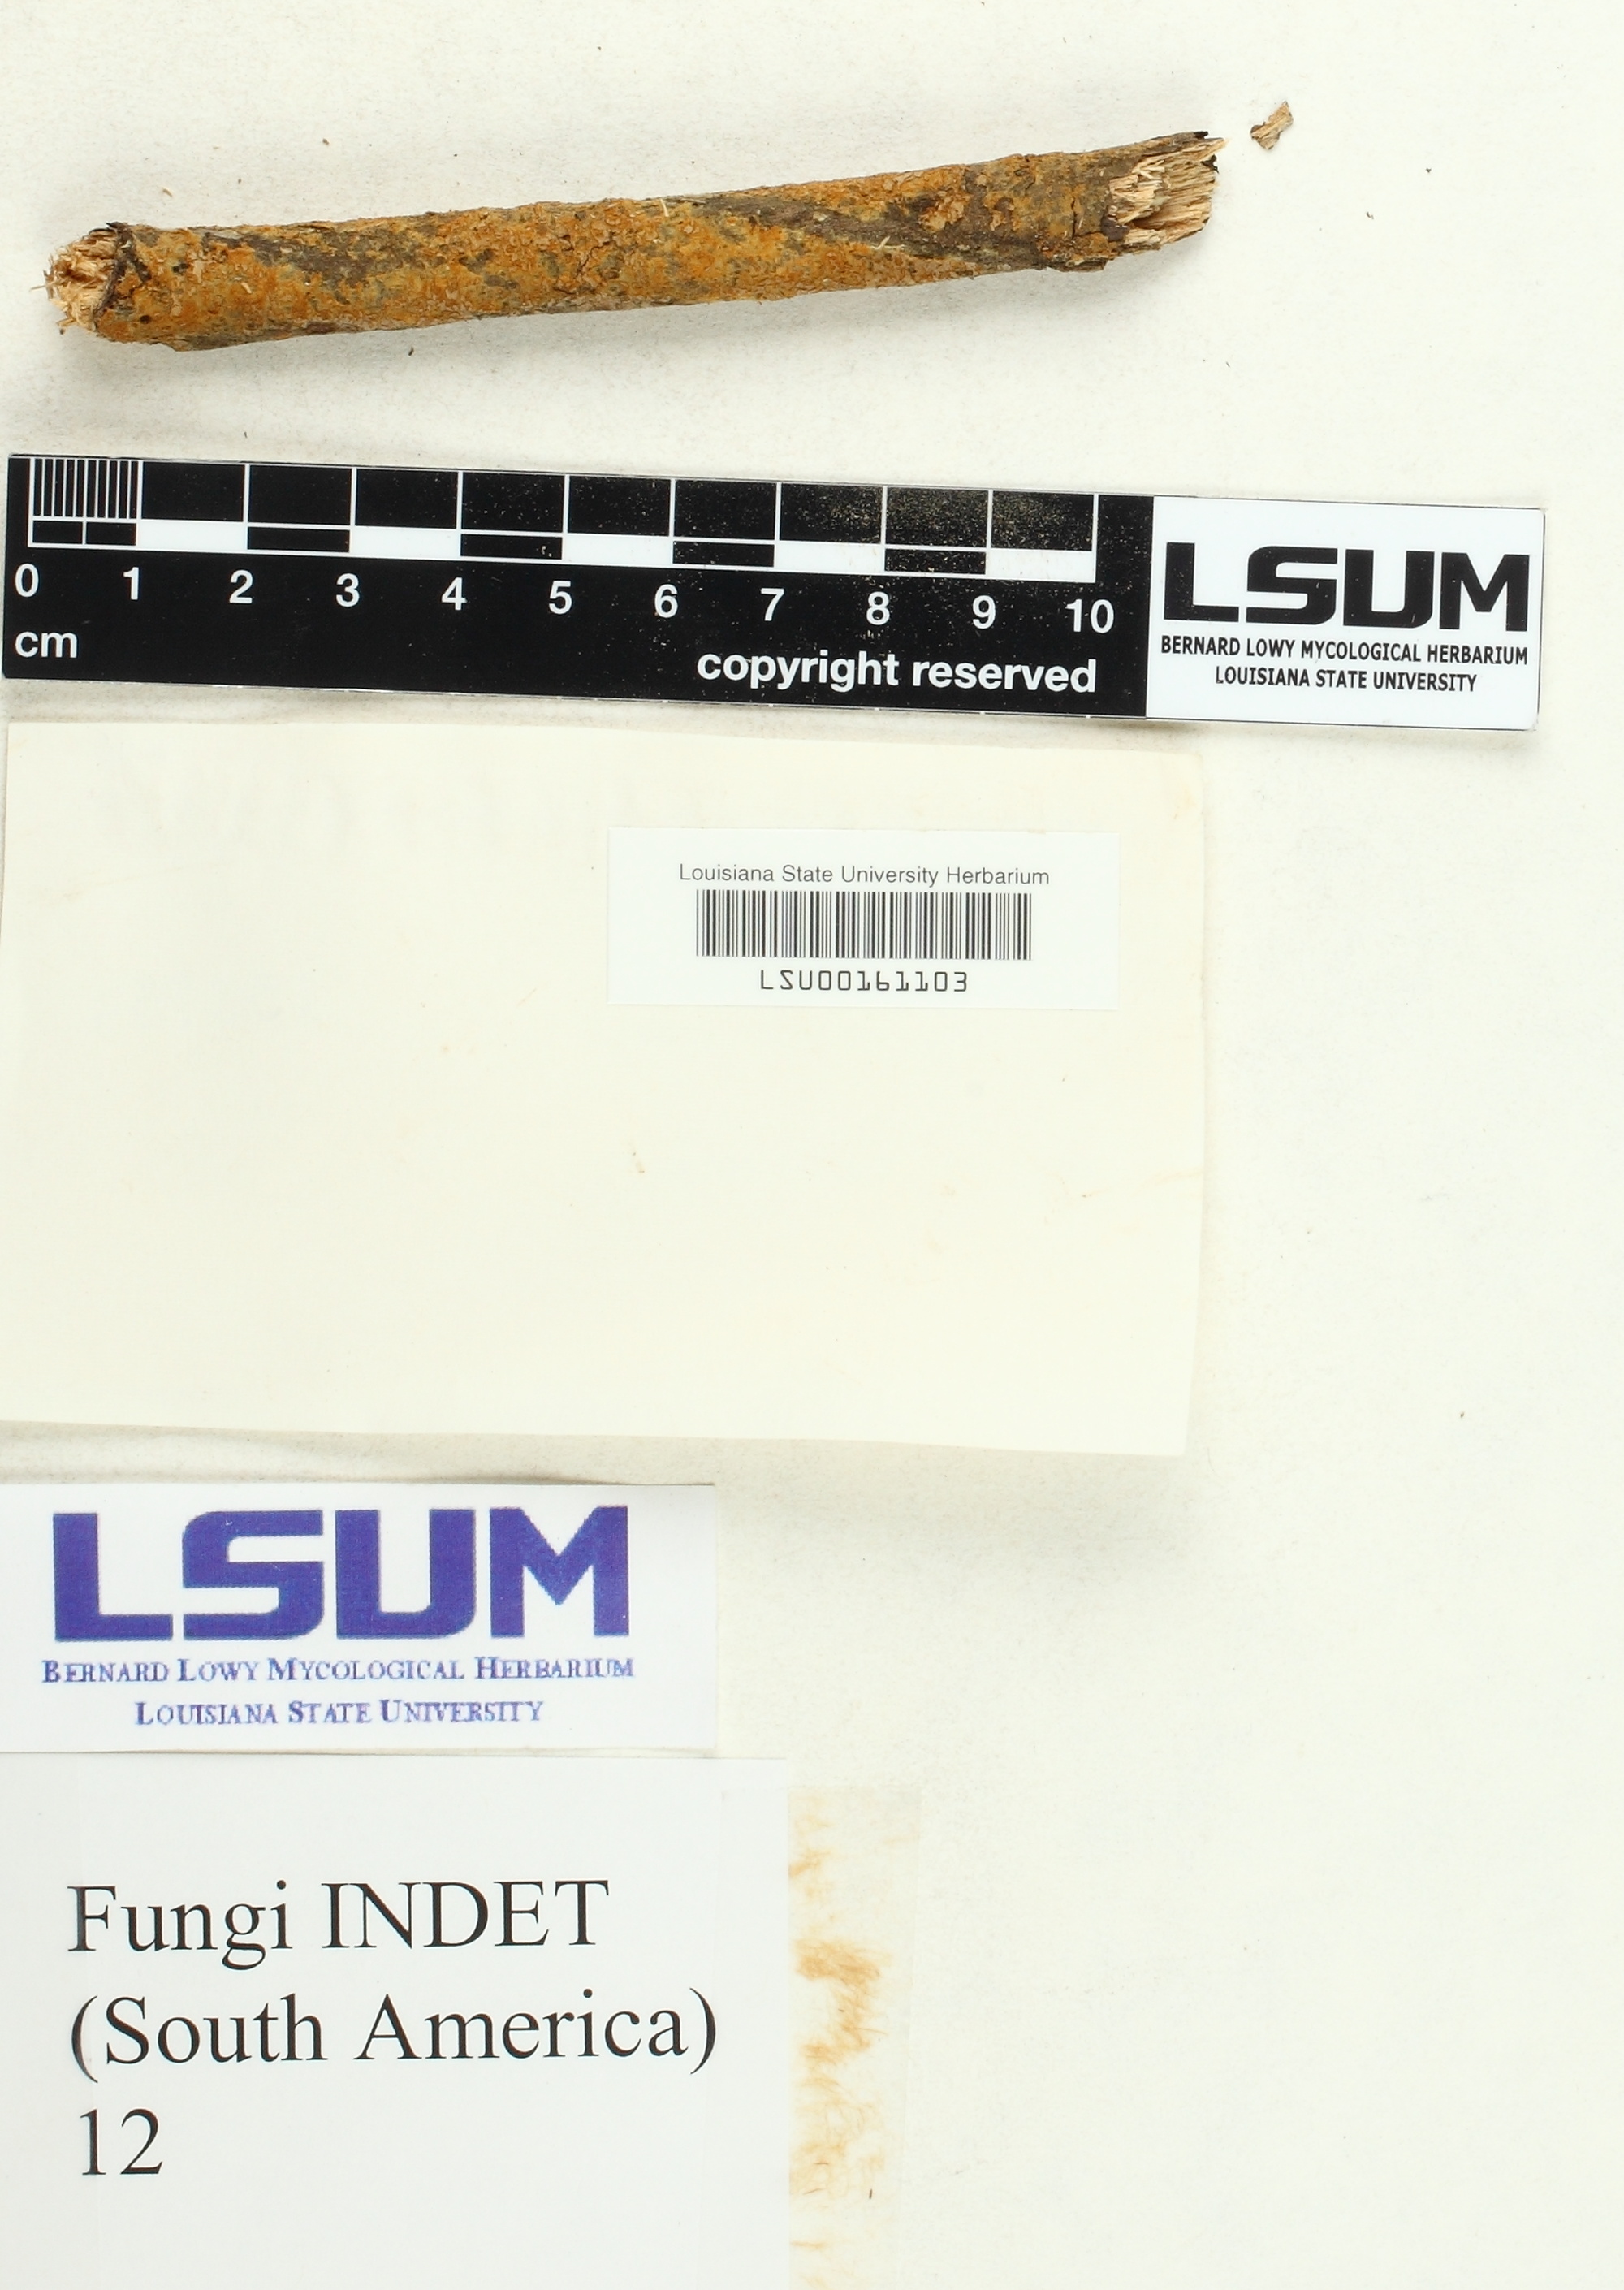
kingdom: Fungi
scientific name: Fungi
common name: Fungi
